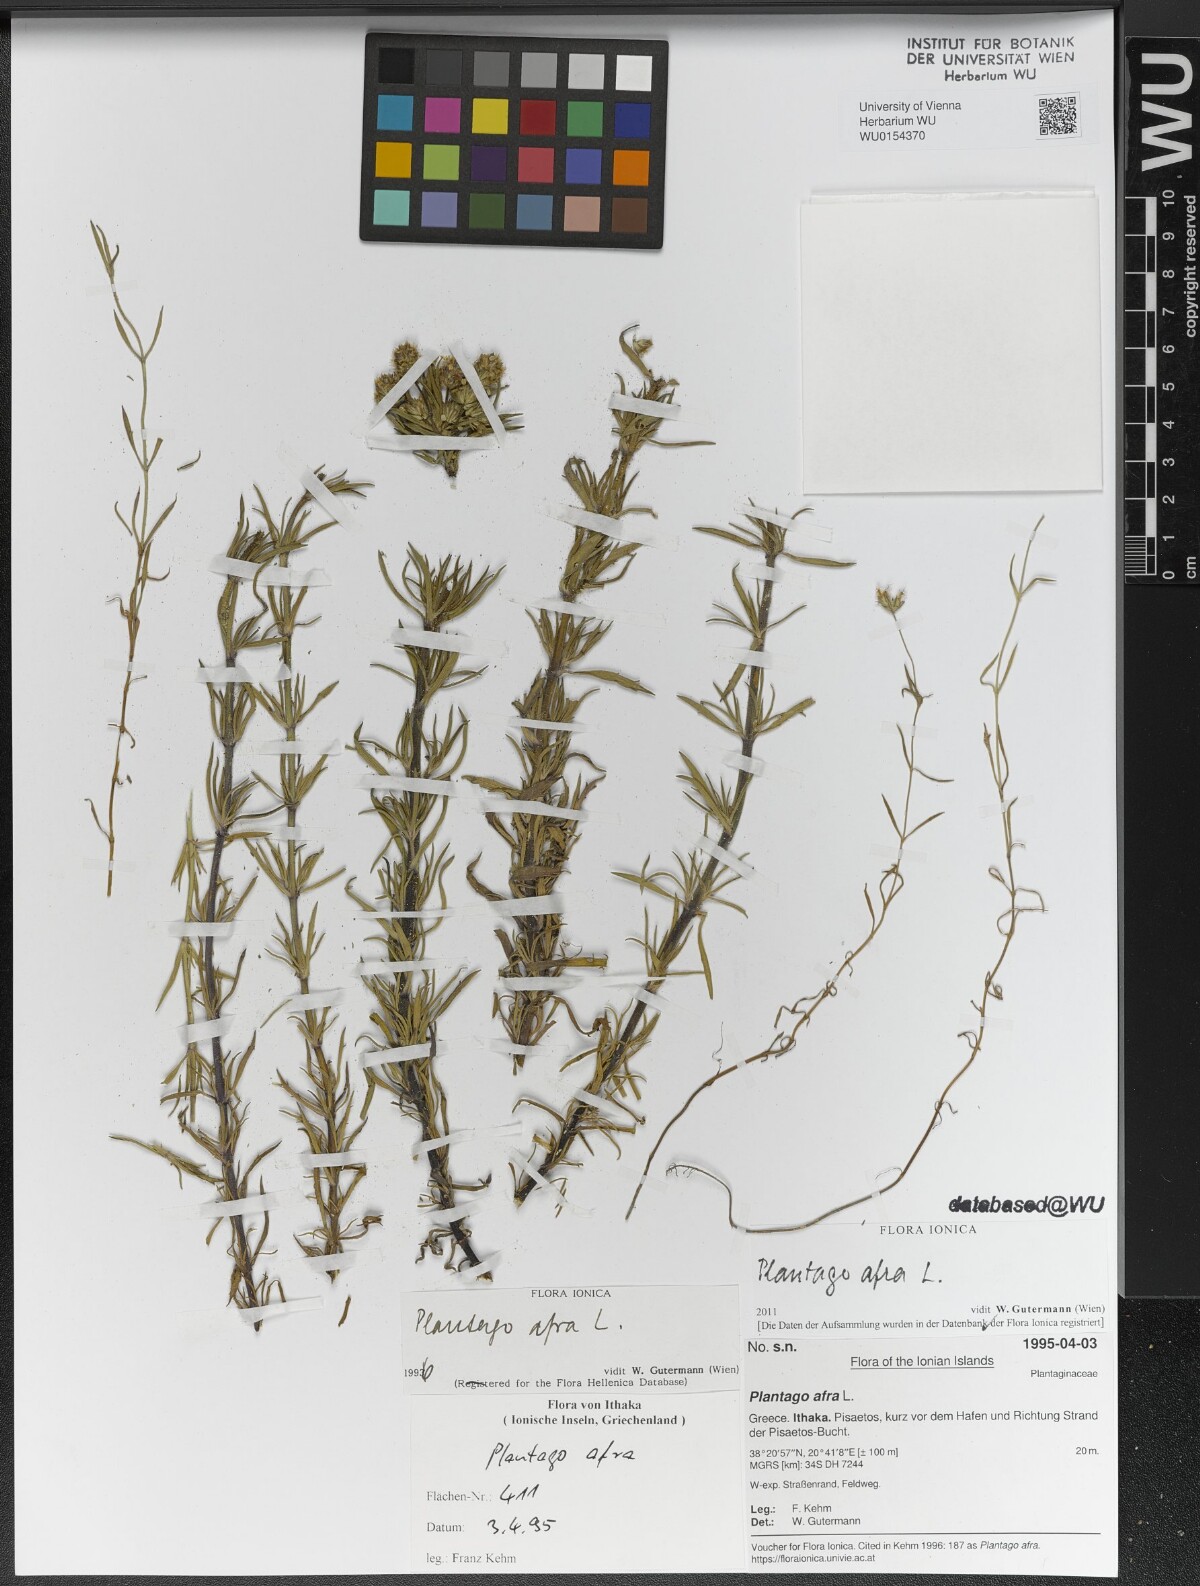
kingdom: Plantae
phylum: Tracheophyta
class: Magnoliopsida
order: Lamiales
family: Plantaginaceae
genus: Plantago
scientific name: Plantago afra
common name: Glandular plantain
